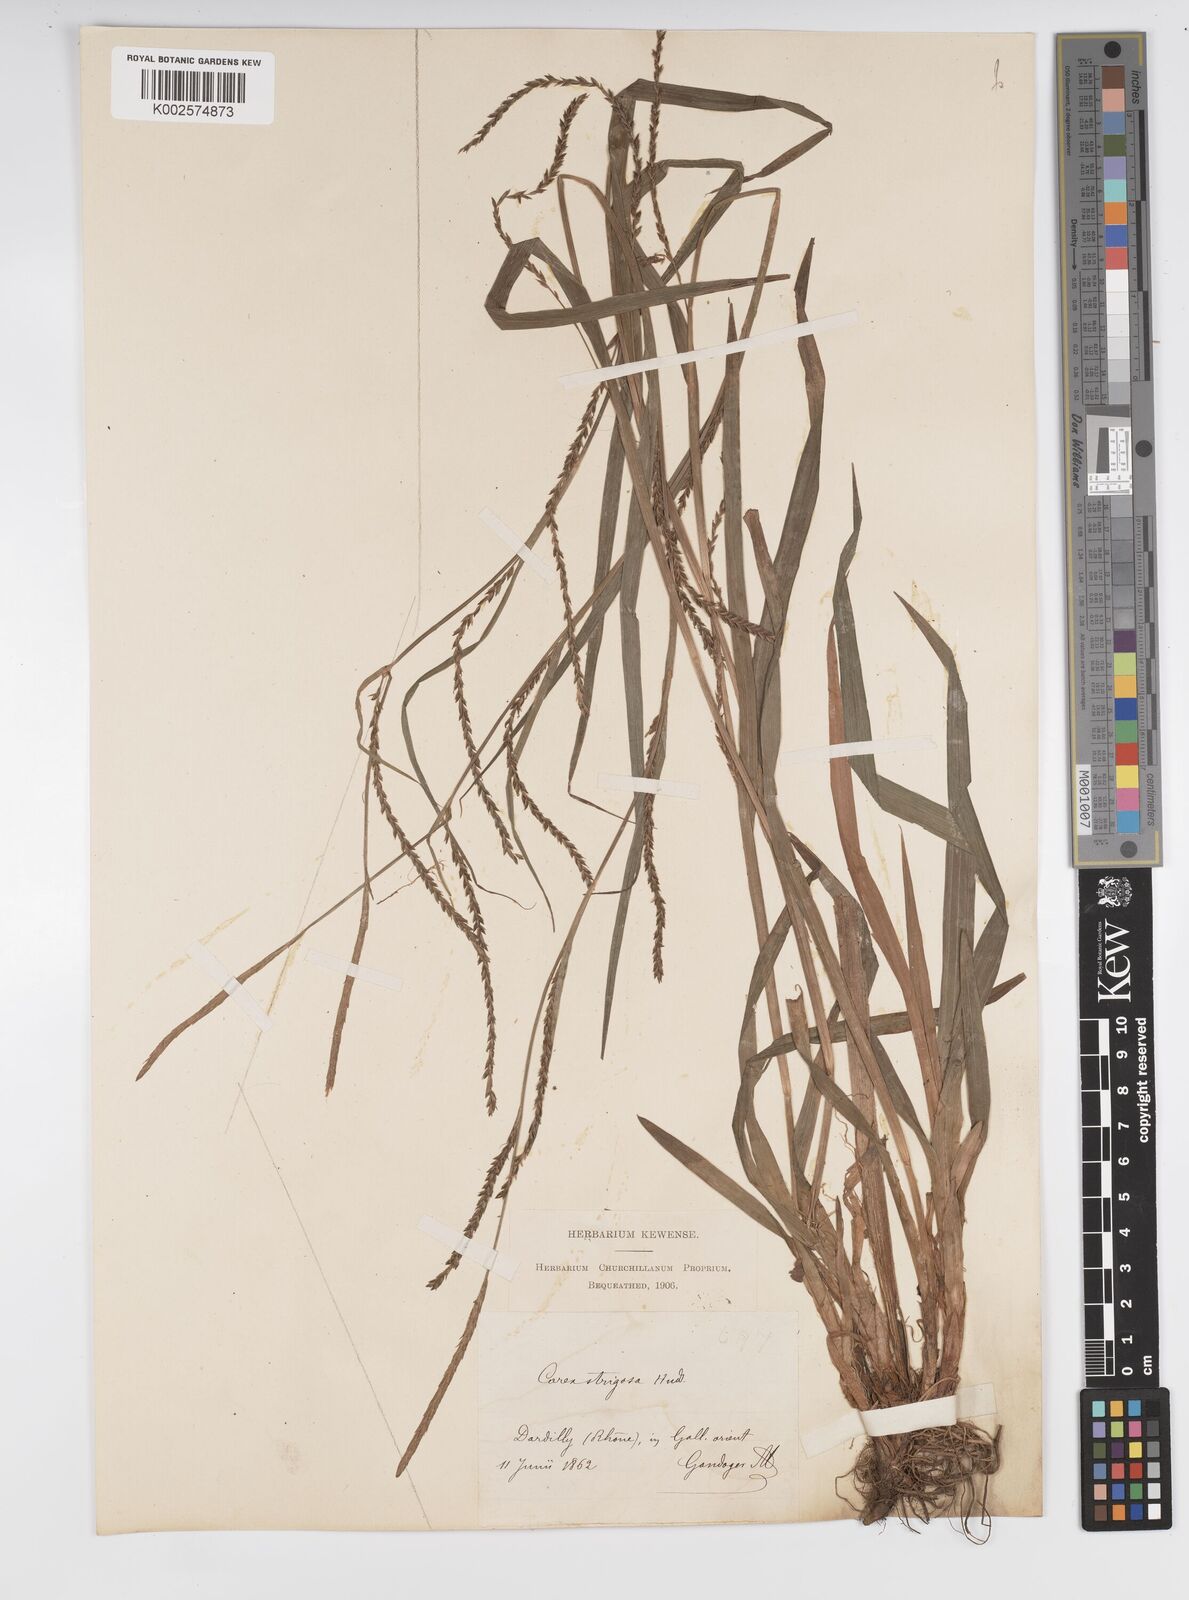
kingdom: Plantae
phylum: Tracheophyta
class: Liliopsida
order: Poales
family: Cyperaceae
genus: Carex
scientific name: Carex strigosa
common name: Thin-spiked wood-sedge
